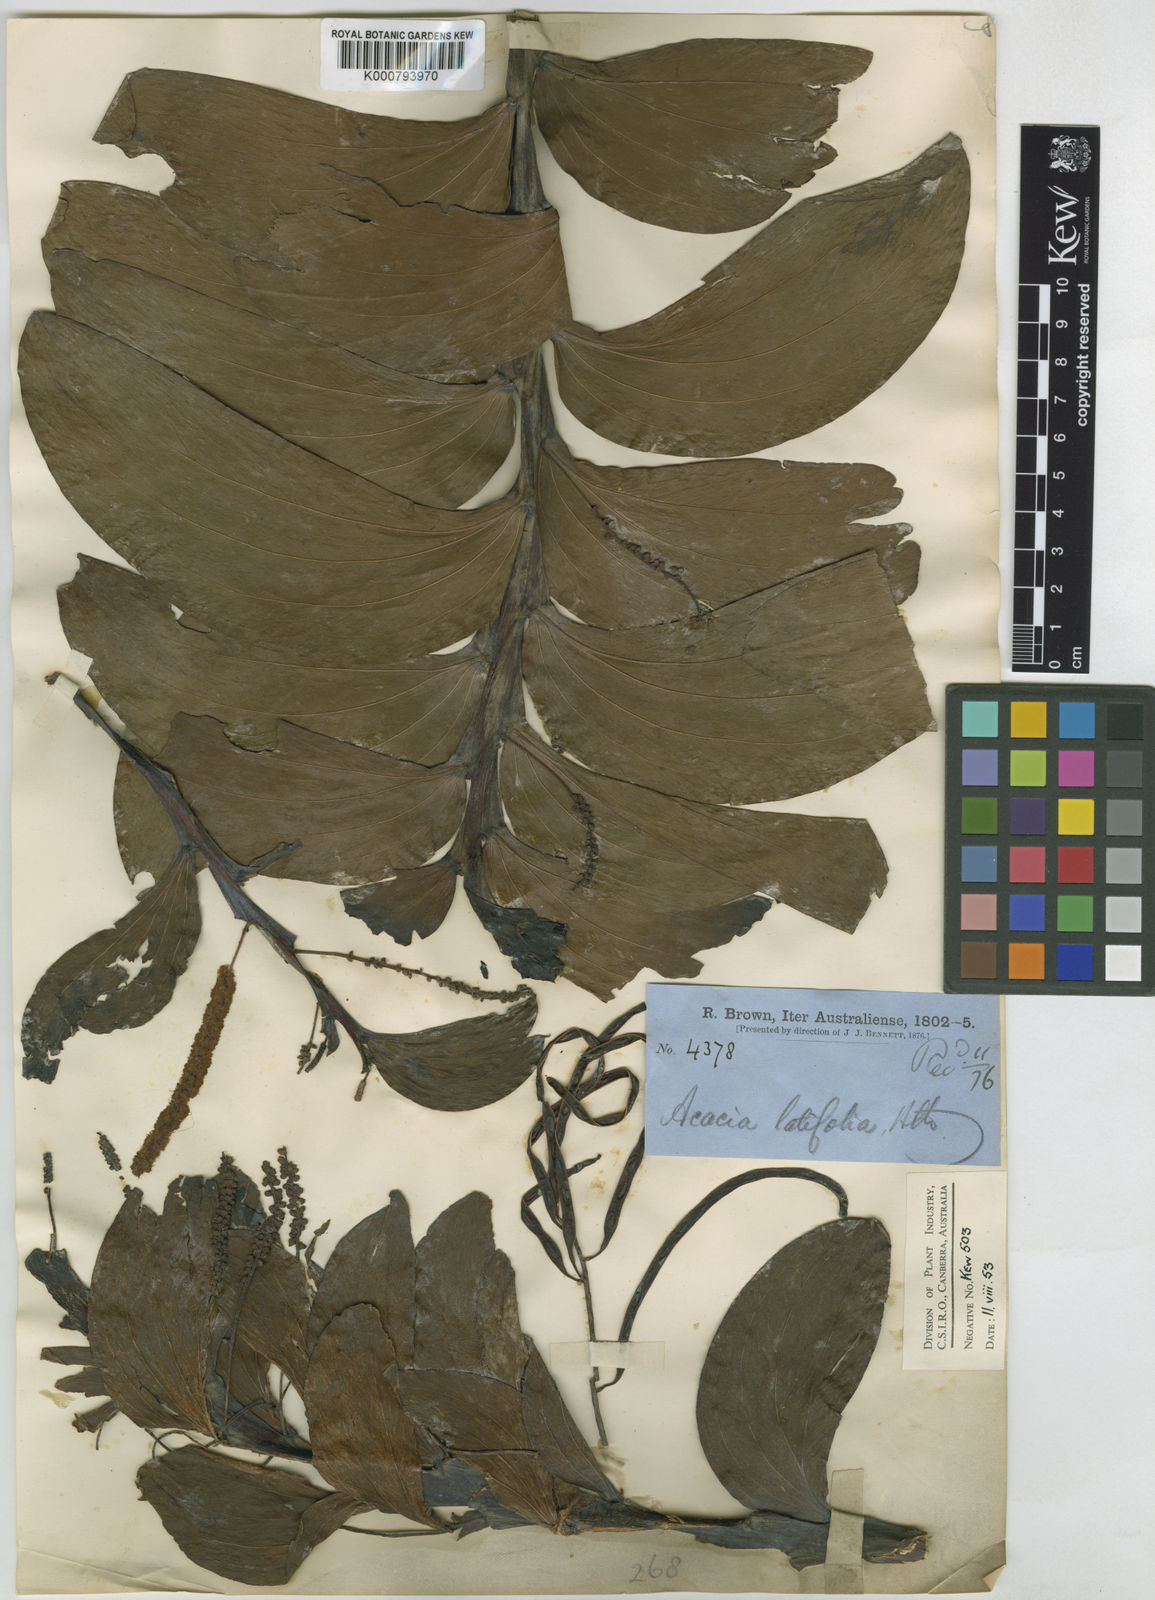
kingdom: Plantae
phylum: Tracheophyta
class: Magnoliopsida
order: Fabales
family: Fabaceae
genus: Acacia
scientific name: Acacia latifolia
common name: Broadleaf acacia
